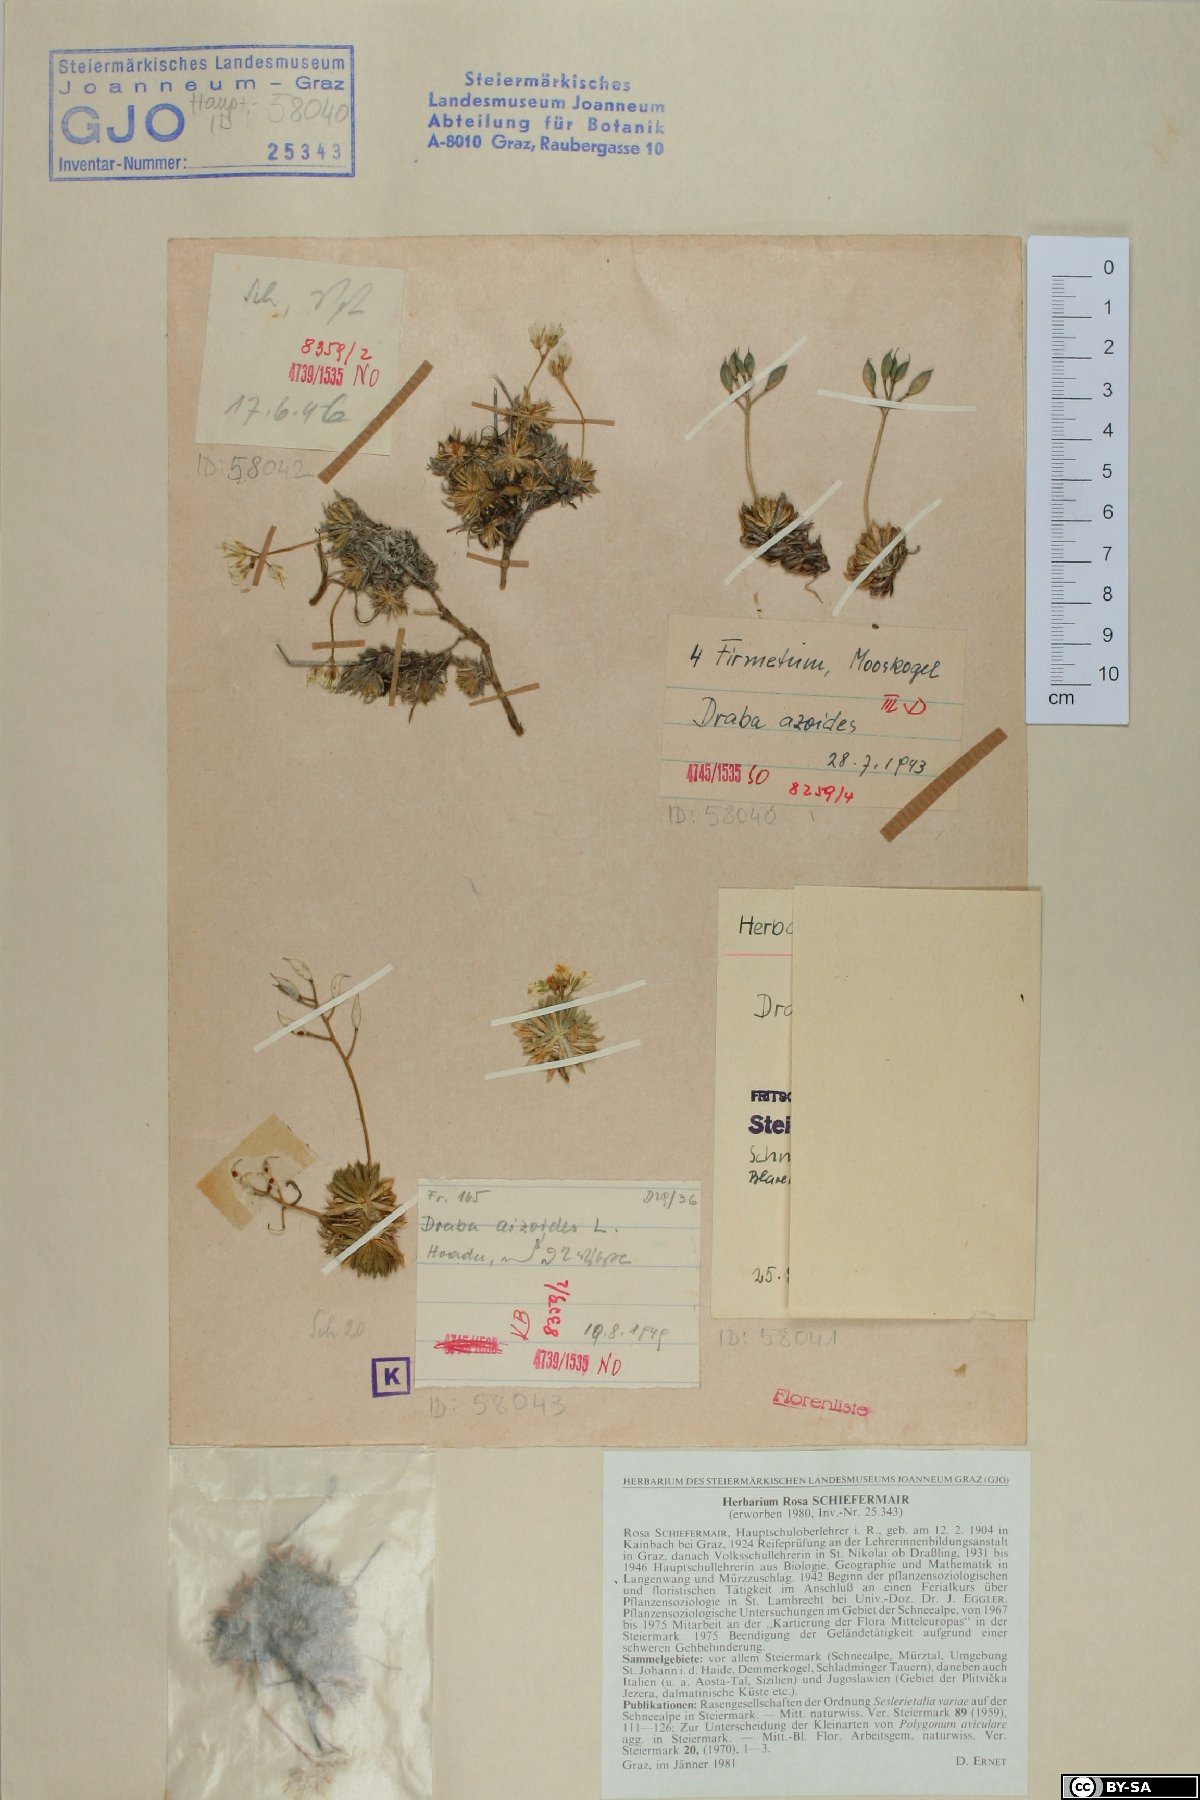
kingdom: Plantae
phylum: Tracheophyta
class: Magnoliopsida
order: Brassicales
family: Brassicaceae
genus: Draba
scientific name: Draba aizoides
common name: Yellow whitlowgrass
